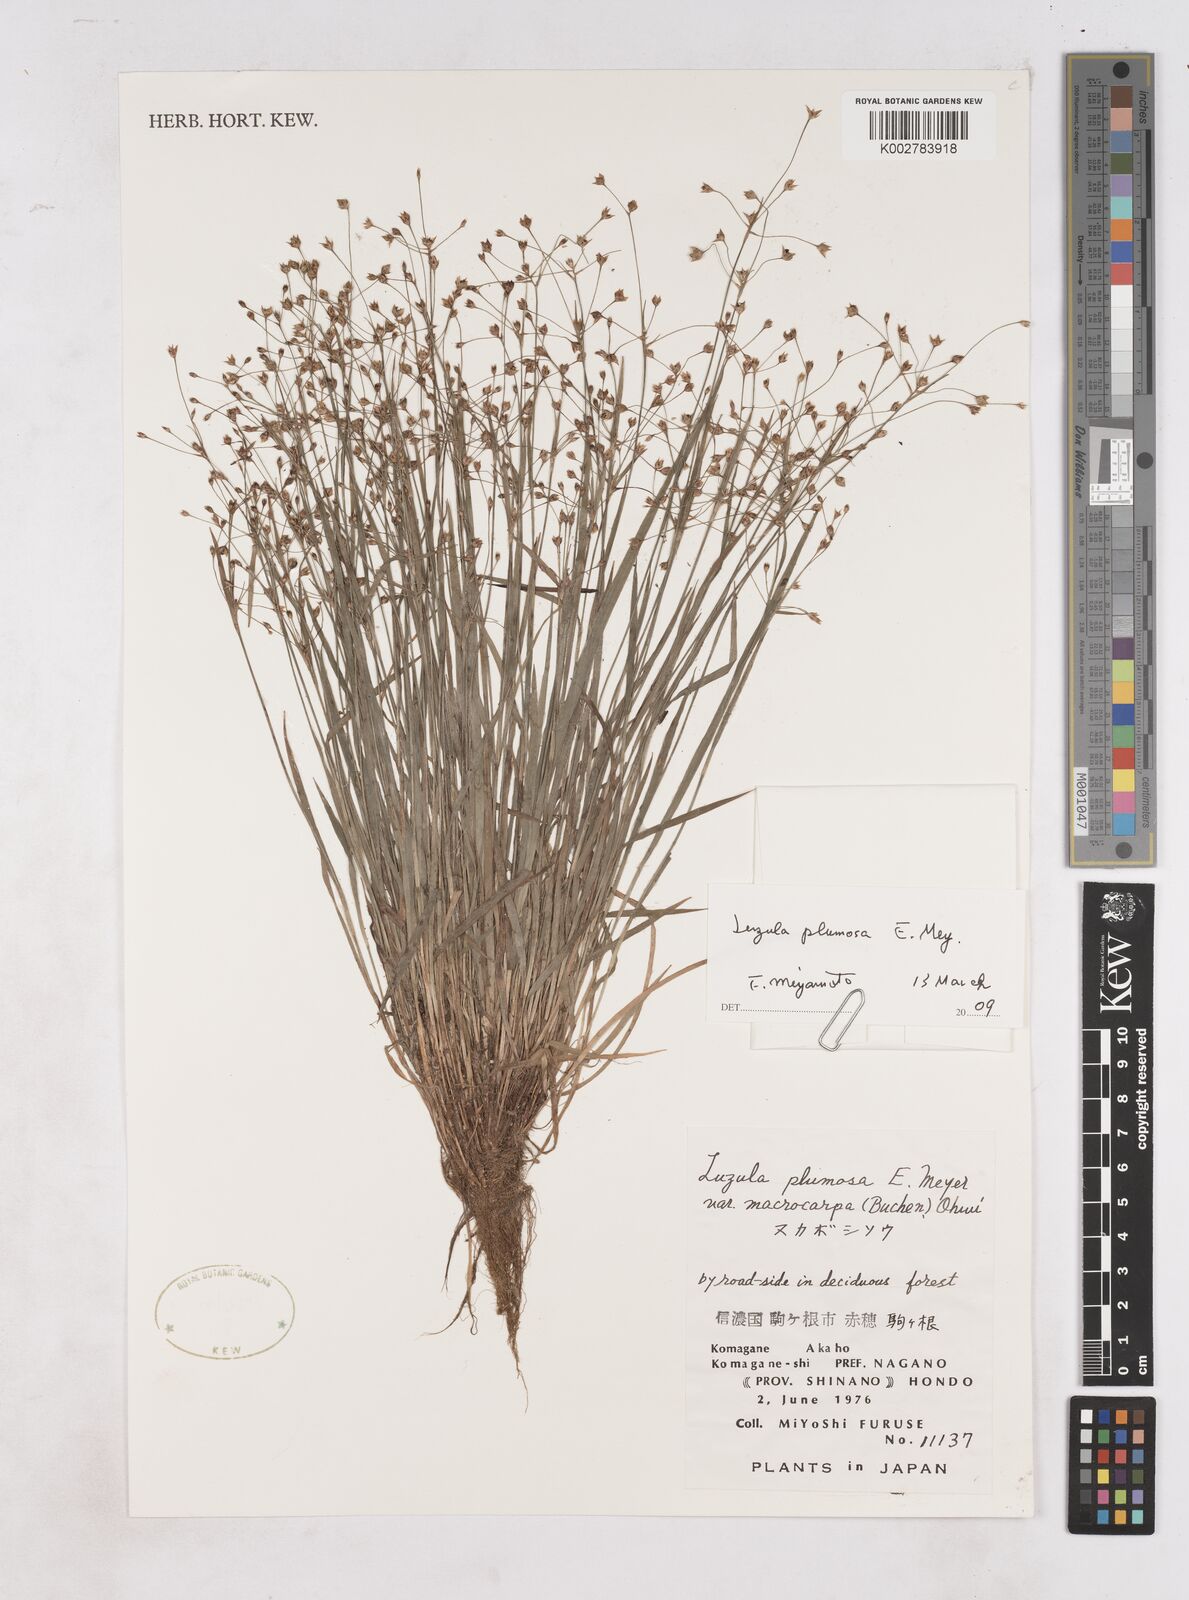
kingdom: Plantae
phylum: Tracheophyta
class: Liliopsida
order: Poales
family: Juncaceae
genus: Luzula
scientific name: Luzula plumosa
